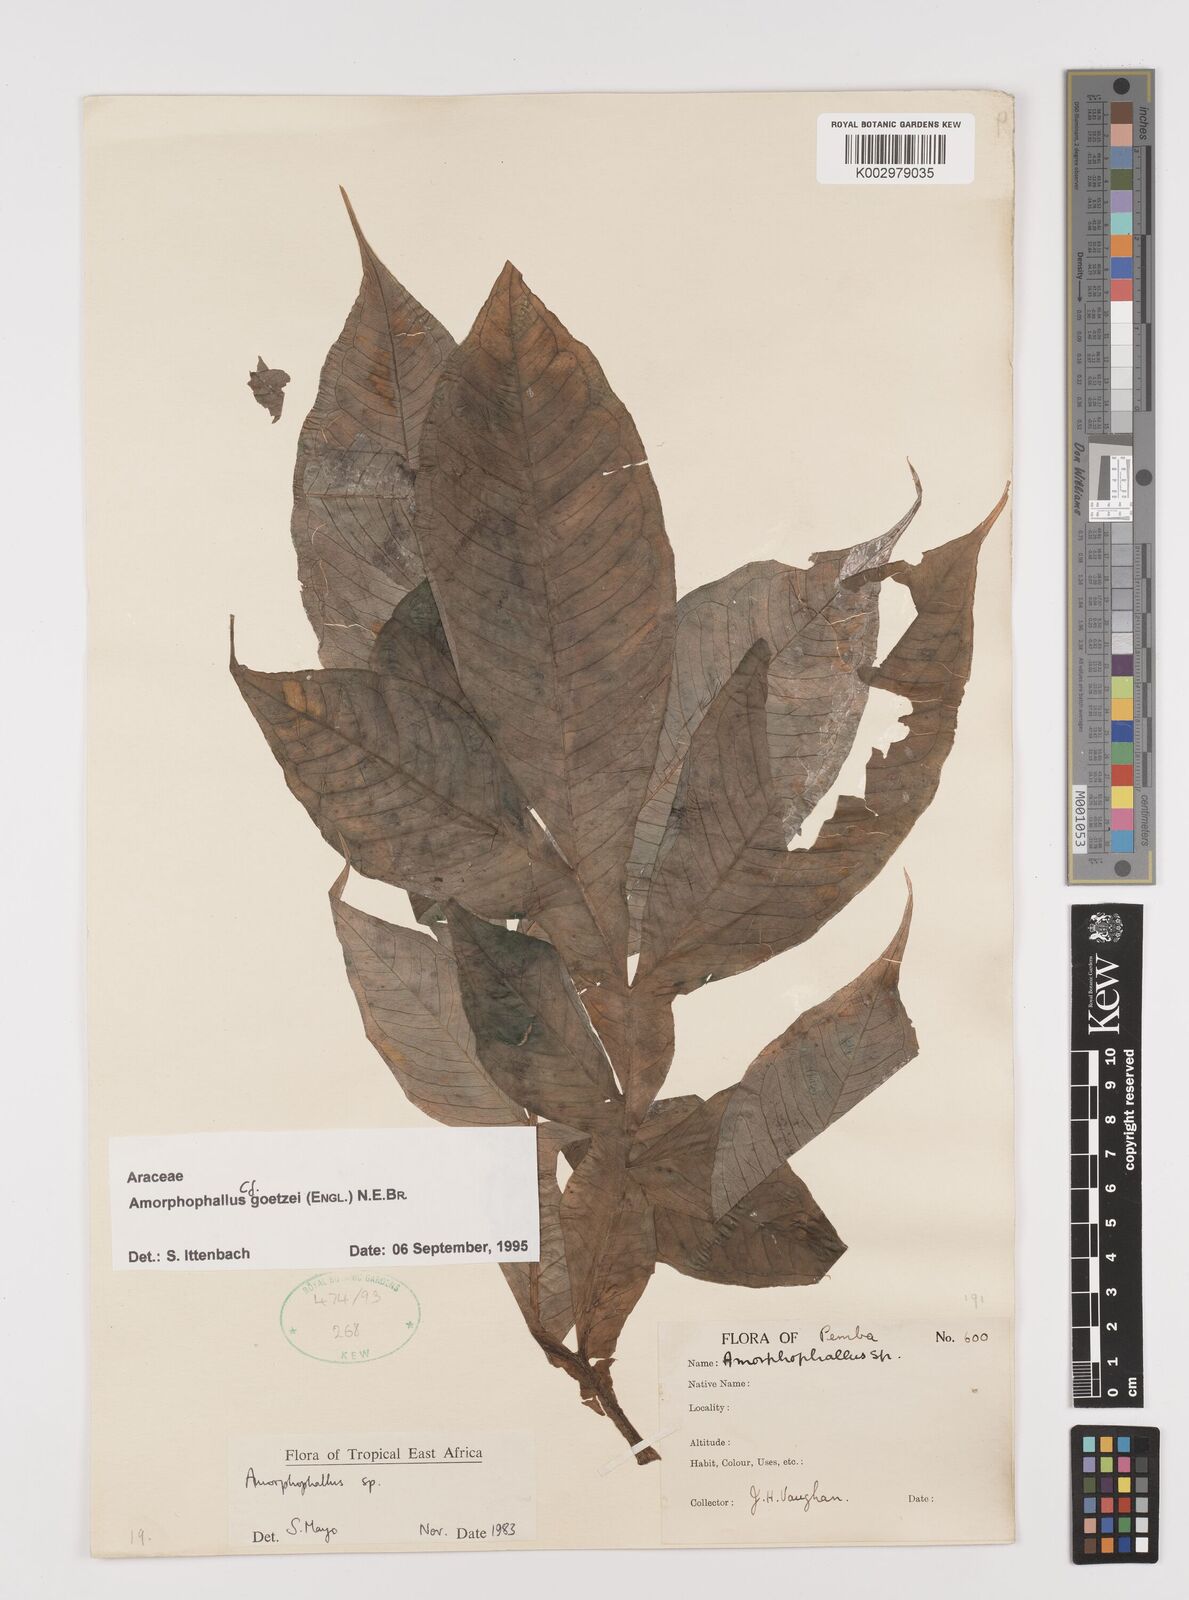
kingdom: Plantae
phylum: Tracheophyta
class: Liliopsida
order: Alismatales
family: Araceae
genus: Amorphophallus
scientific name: Amorphophallus goetzei
